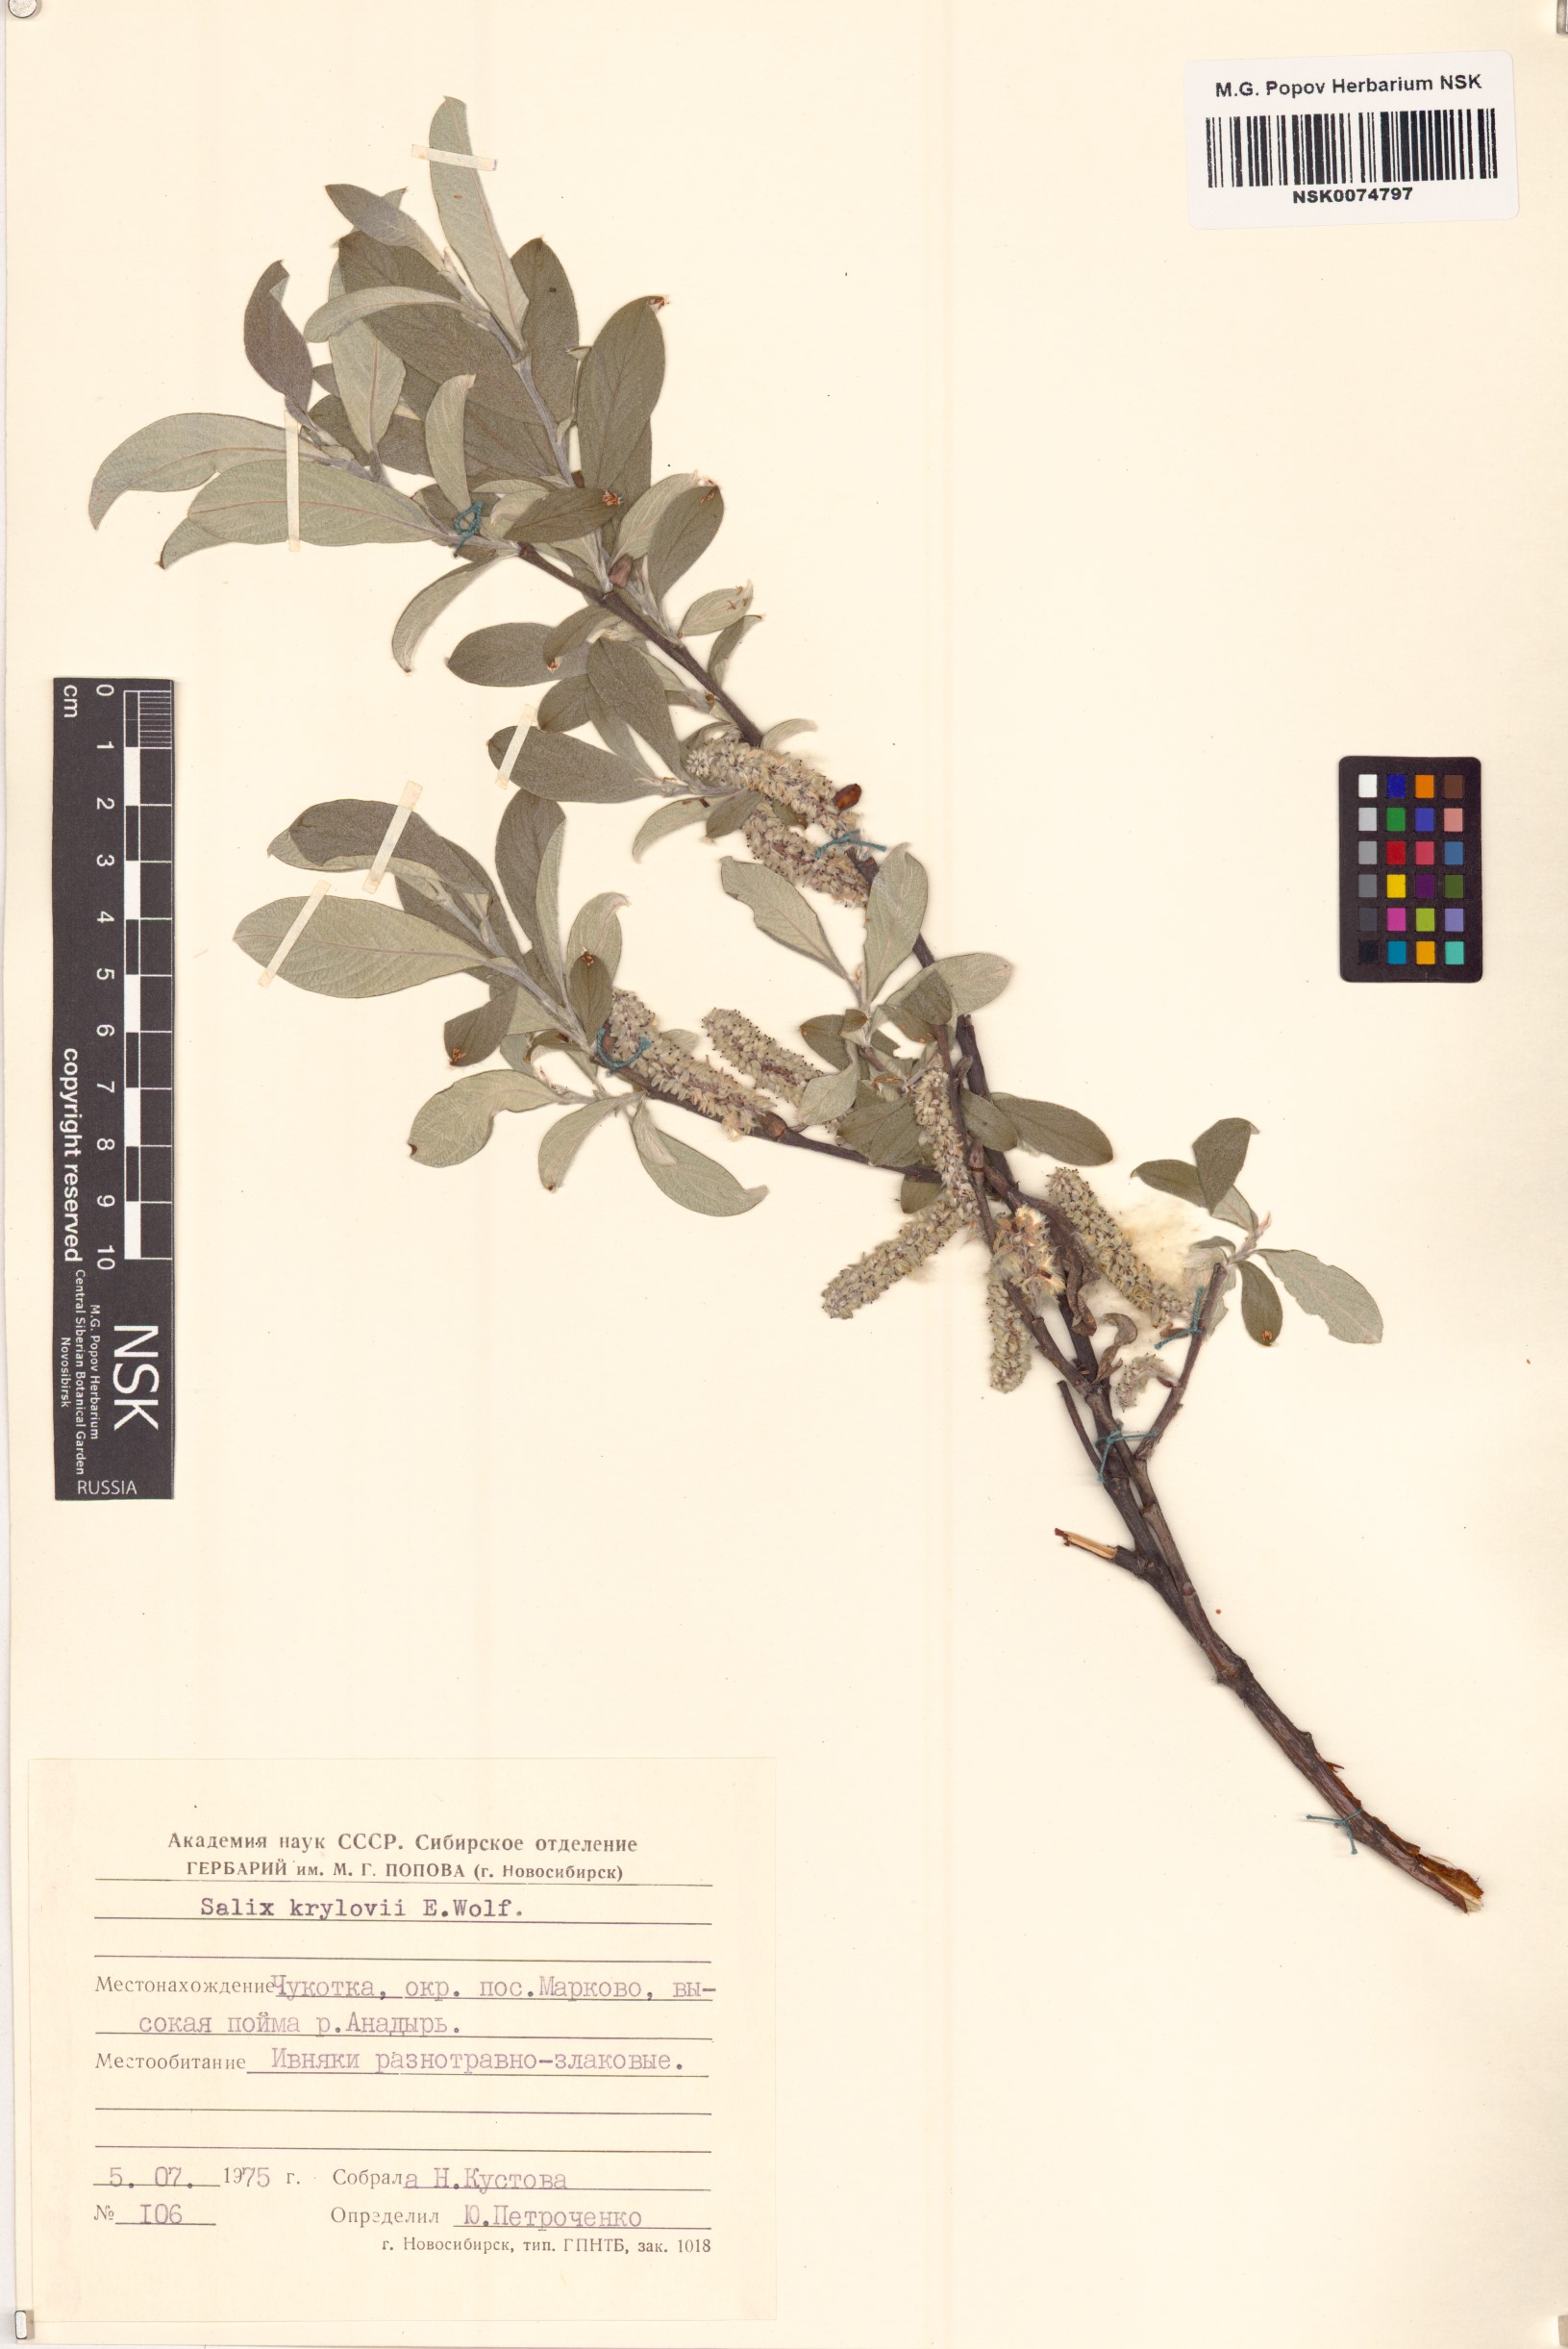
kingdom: Plantae
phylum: Tracheophyta
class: Magnoliopsida
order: Malpighiales
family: Salicaceae
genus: Salix
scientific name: Salix krylovii
